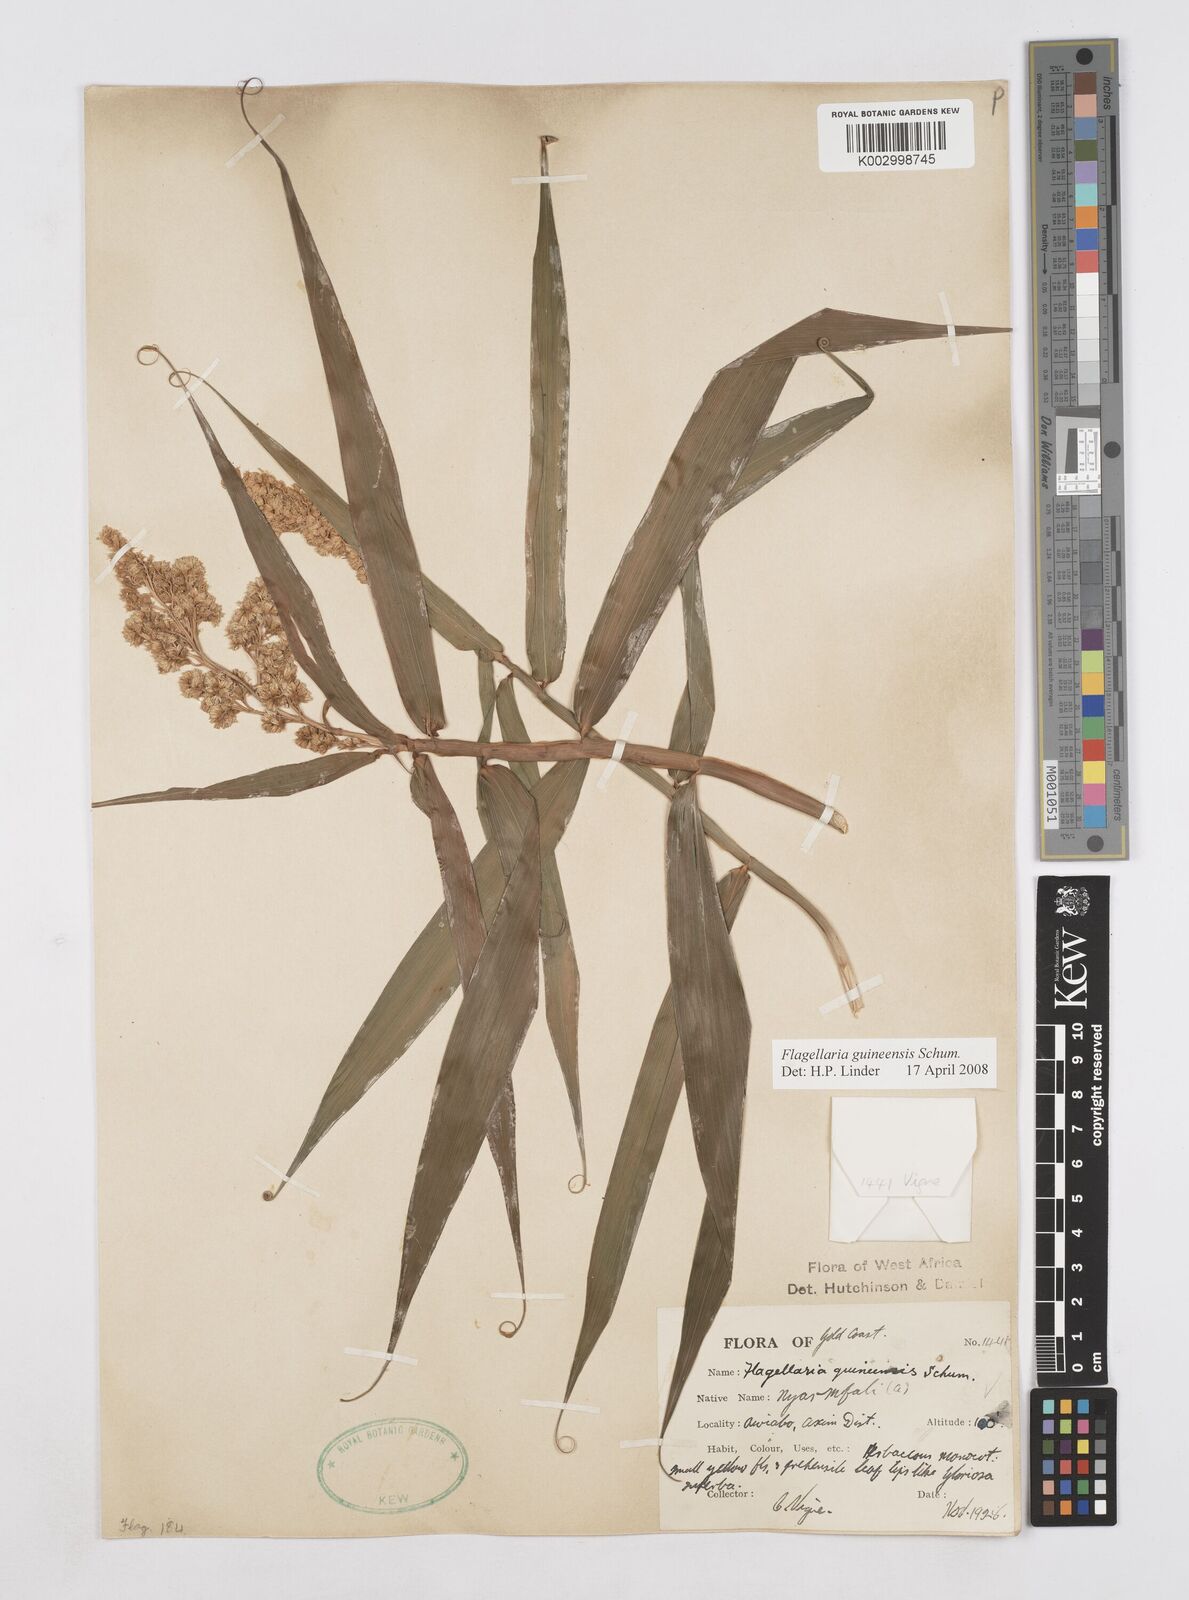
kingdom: Plantae
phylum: Tracheophyta
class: Liliopsida
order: Poales
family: Flagellariaceae
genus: Flagellaria
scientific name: Flagellaria guineensis
